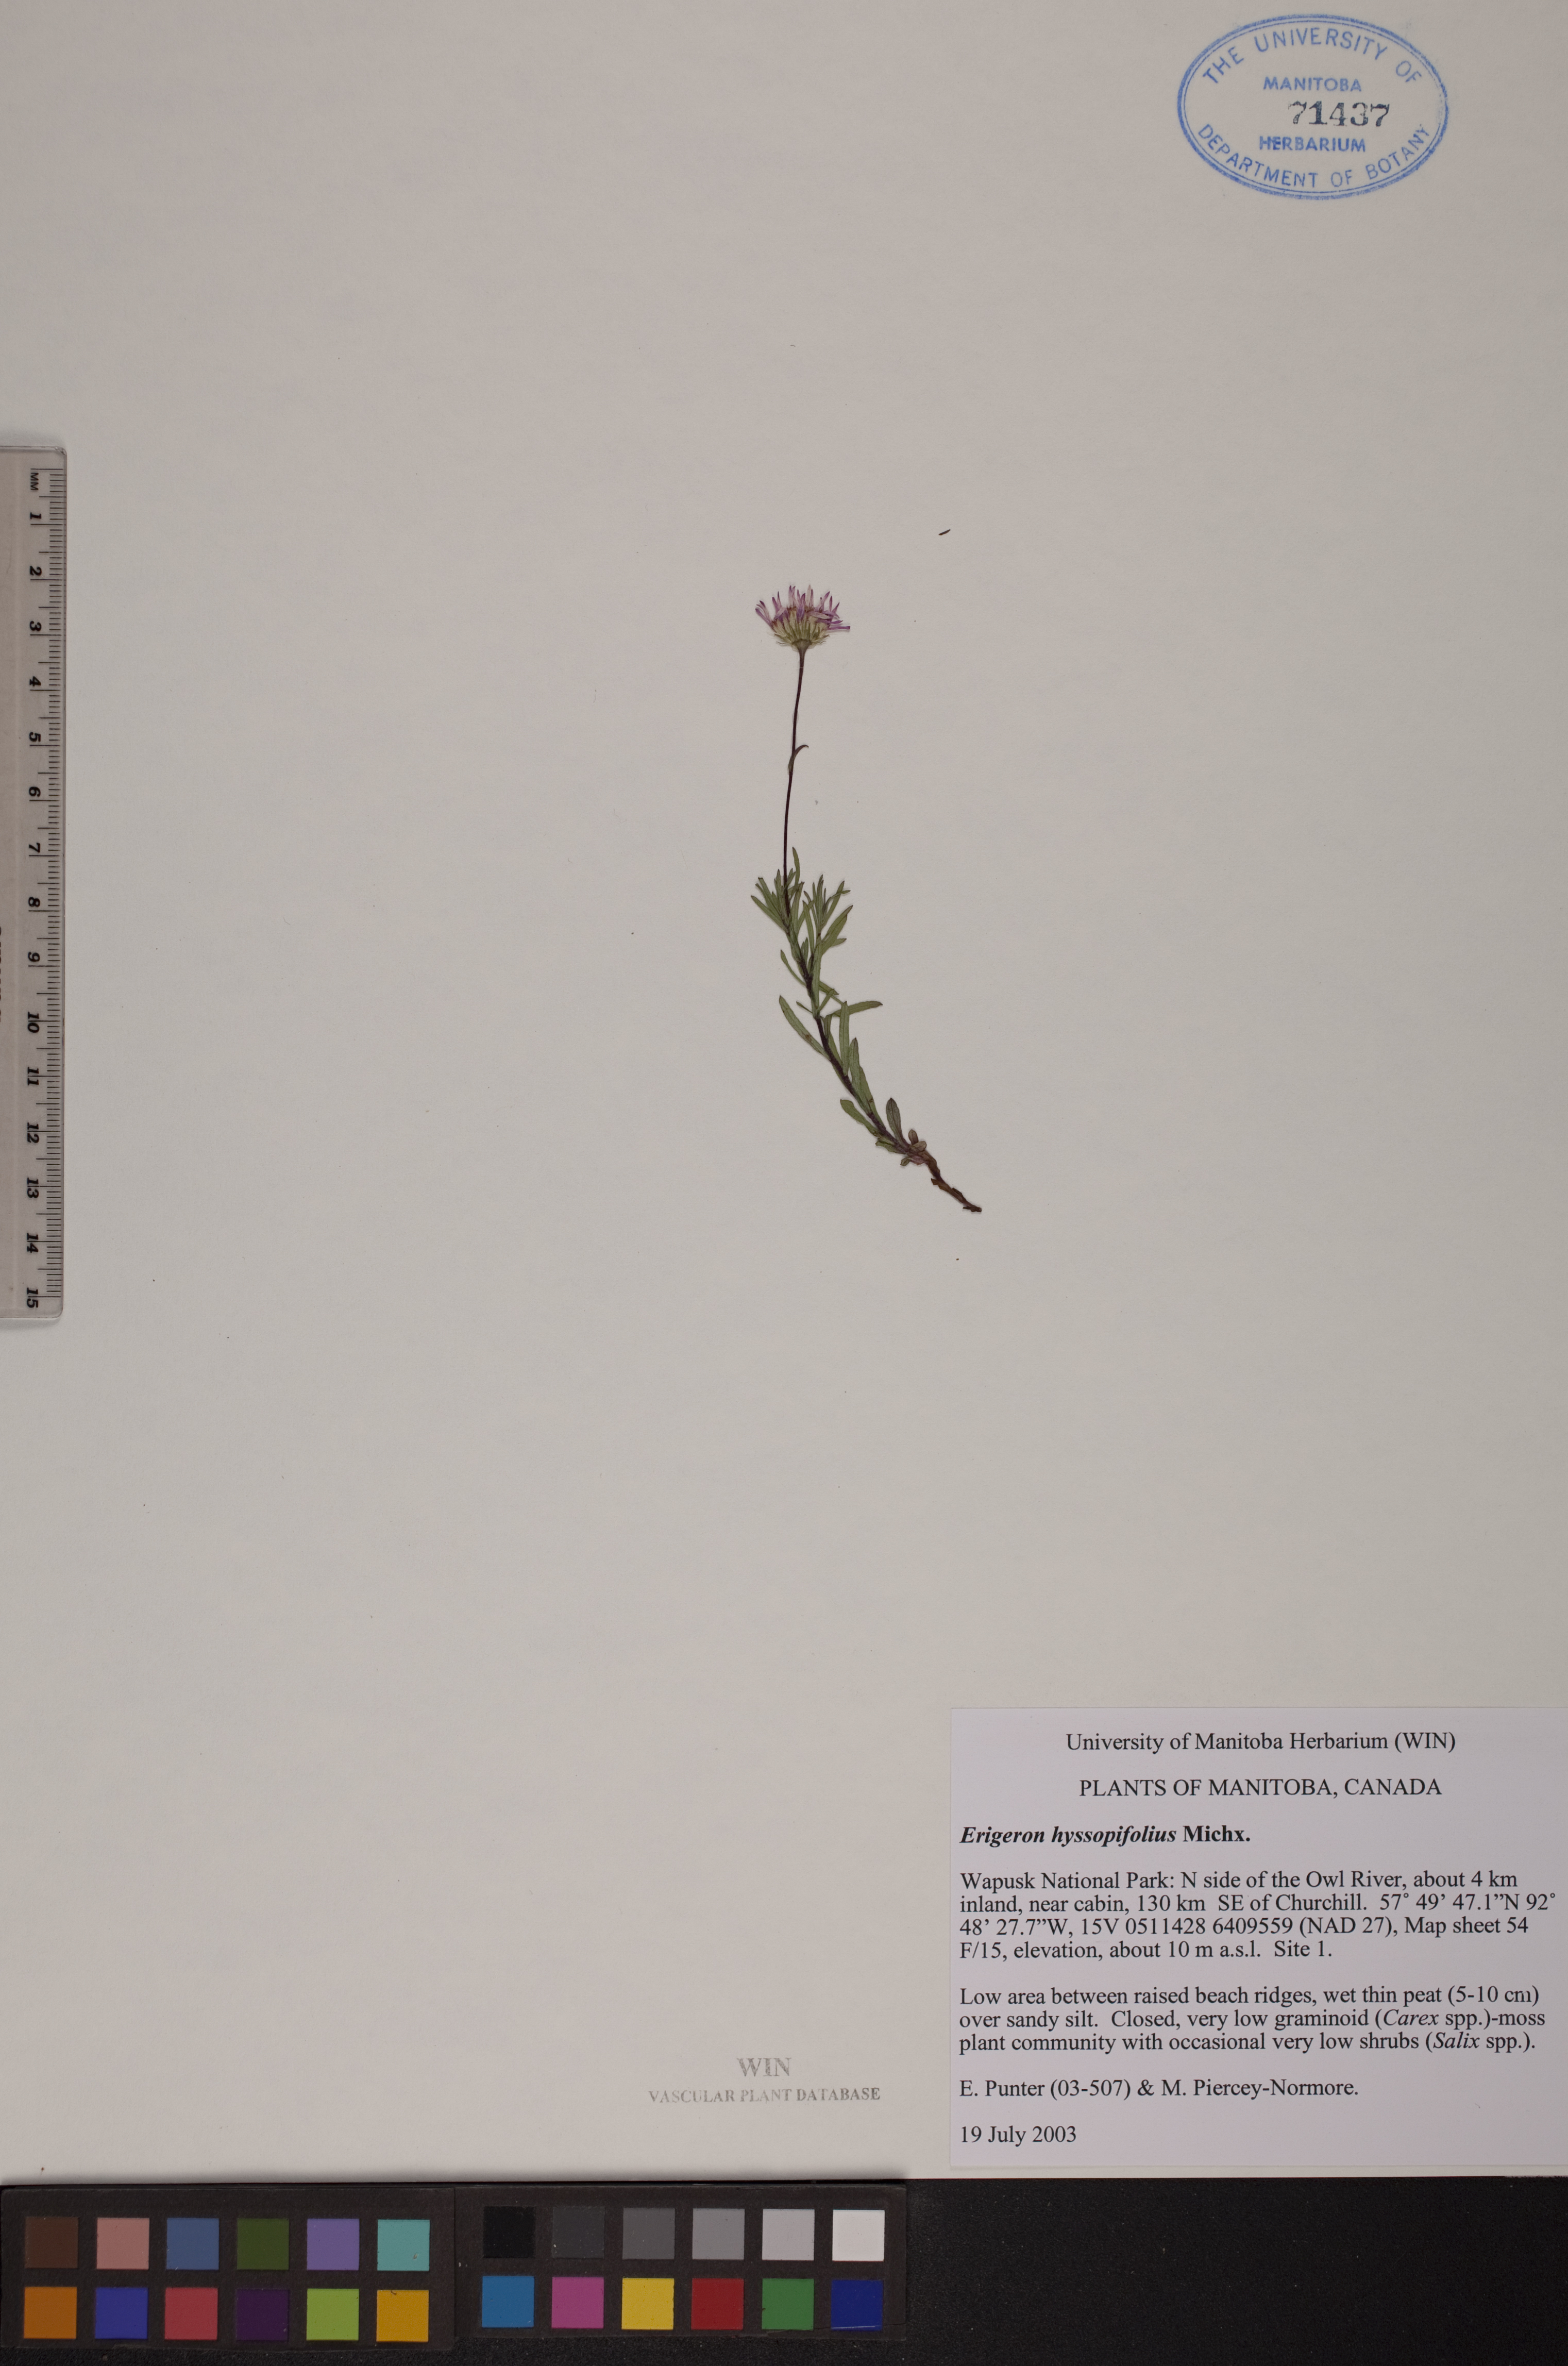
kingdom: Plantae
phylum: Tracheophyta
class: Magnoliopsida
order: Asterales
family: Asteraceae
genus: Erigeron
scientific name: Erigeron hyssopifolius
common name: Daisy fleabane
